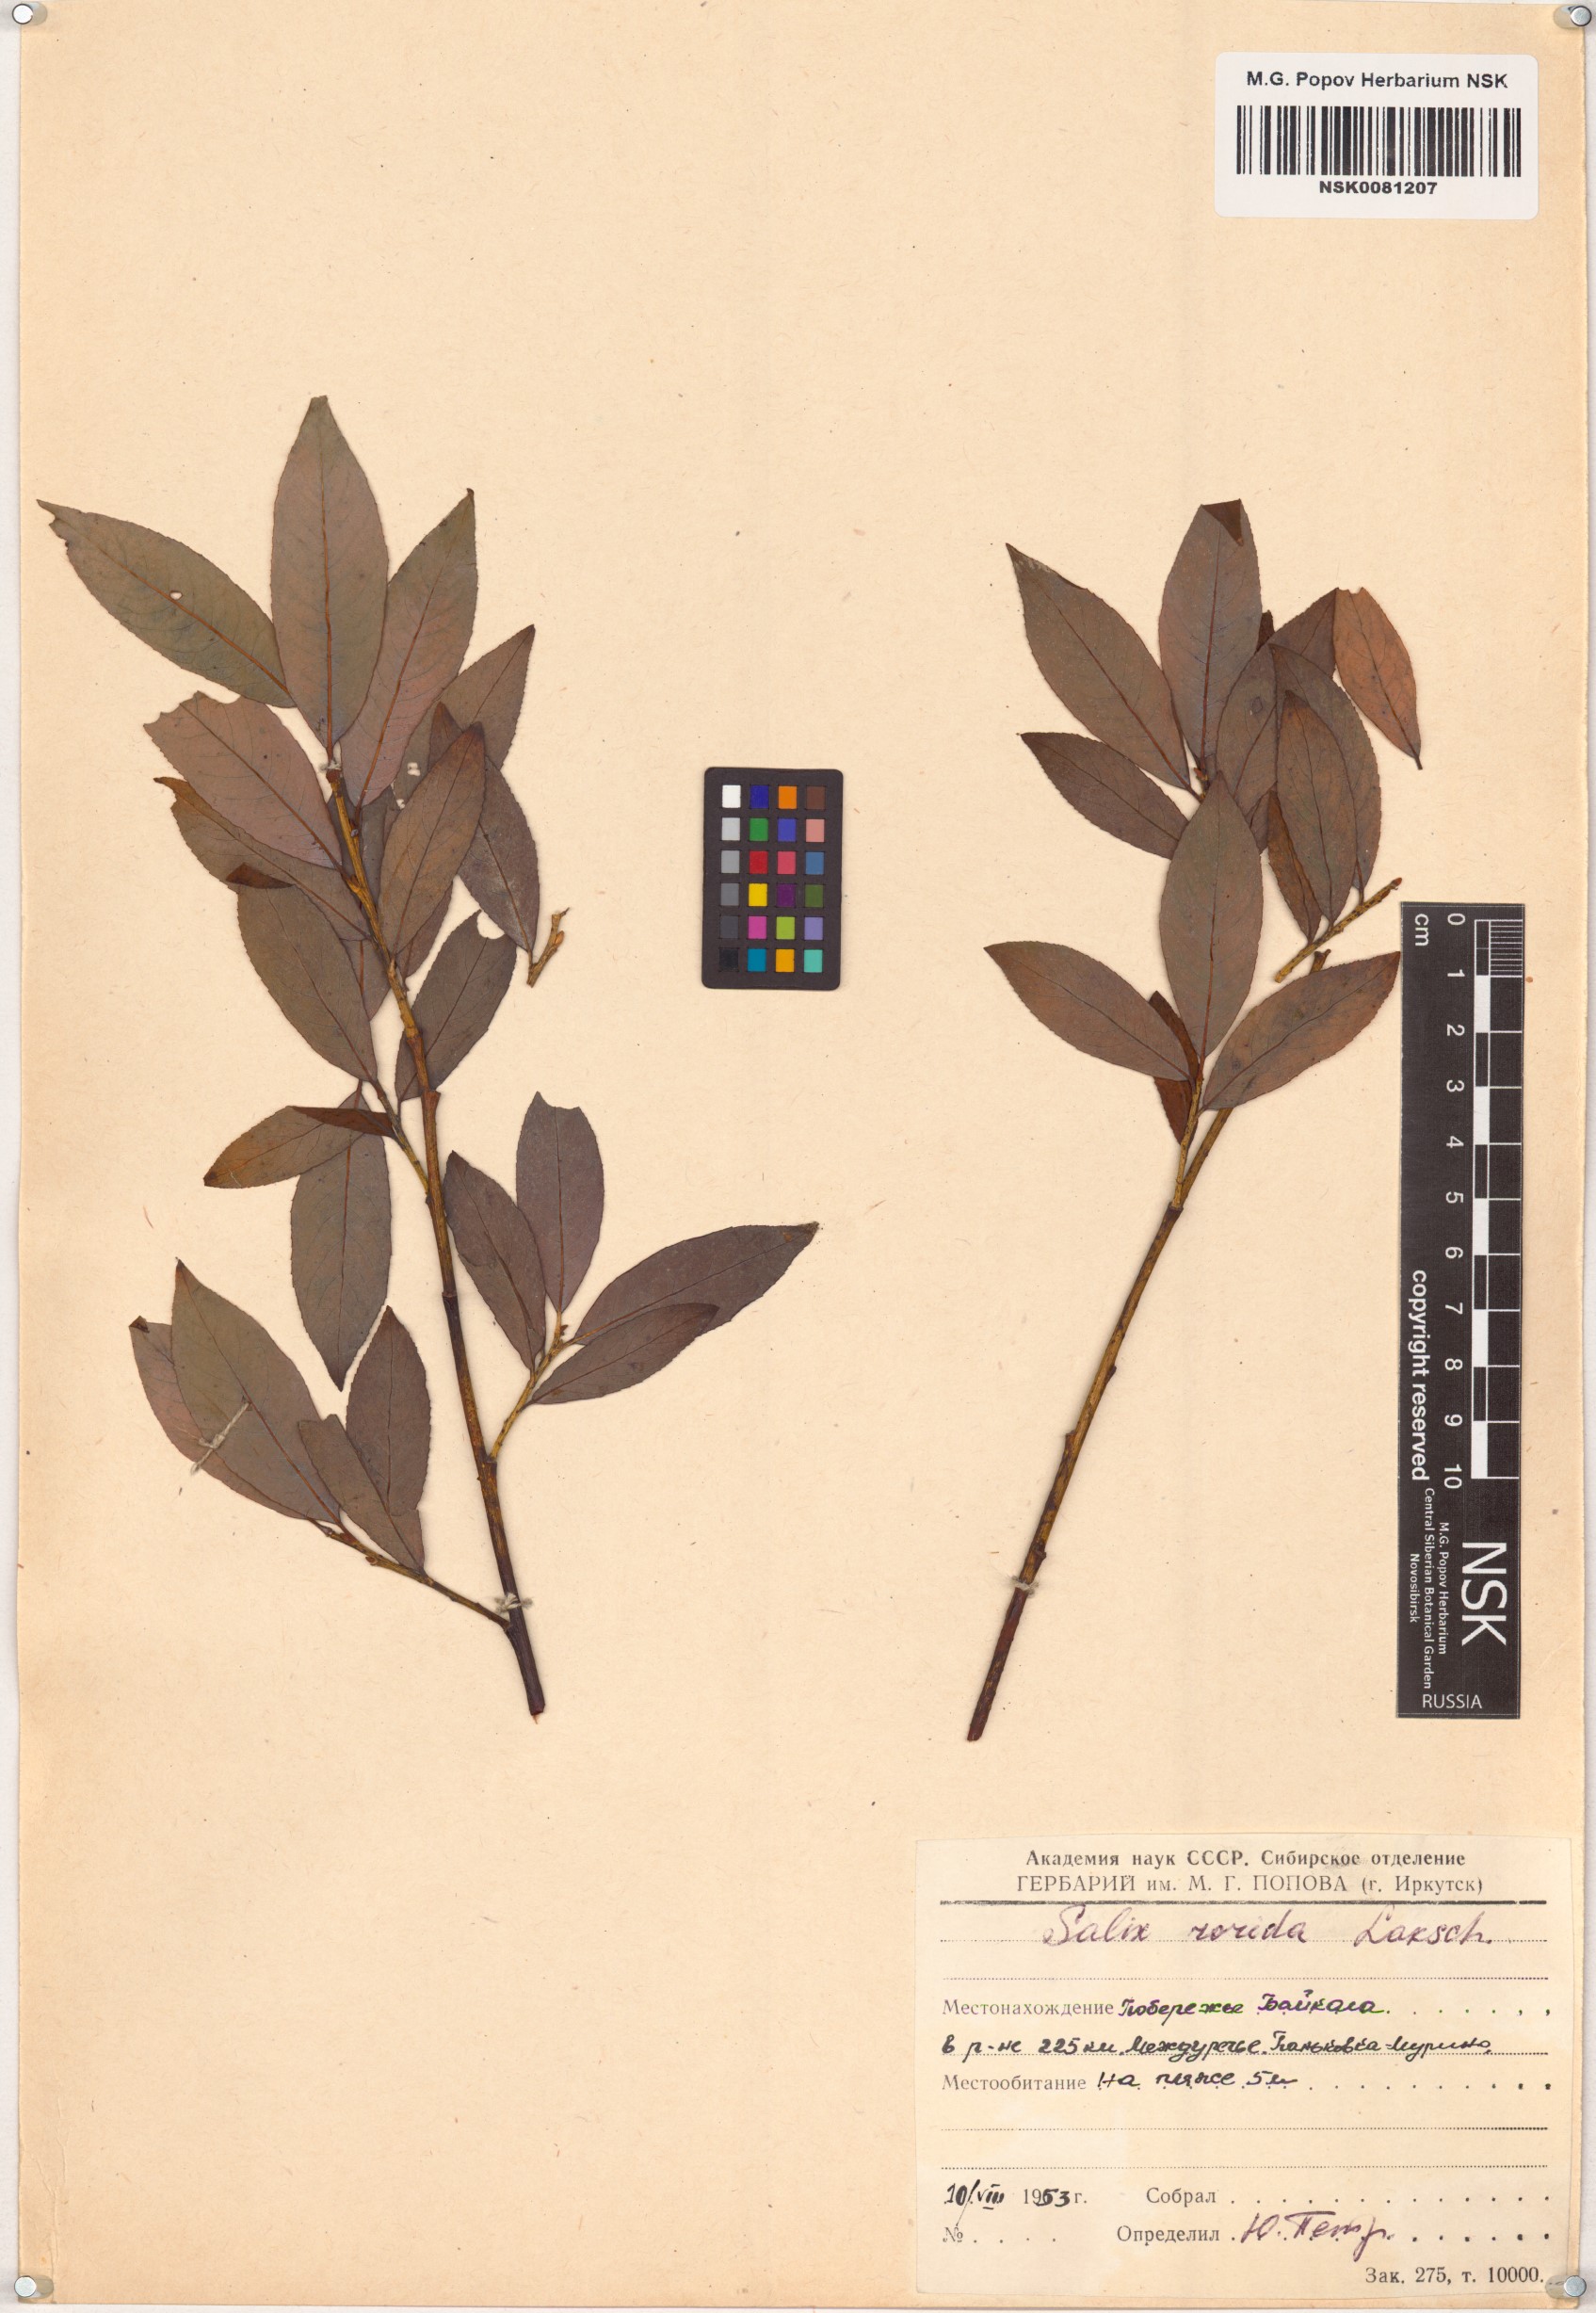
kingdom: Plantae
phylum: Tracheophyta
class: Magnoliopsida
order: Malpighiales
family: Salicaceae
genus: Salix
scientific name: Salix rorida
